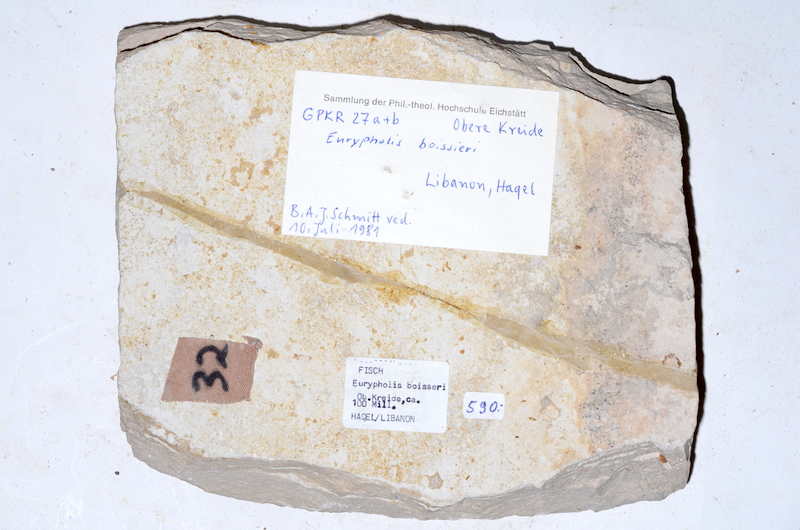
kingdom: Animalia
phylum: Chordata
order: Salmoniformes
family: Eurypholidae
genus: Eurypholis
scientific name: Eurypholis boissieri
